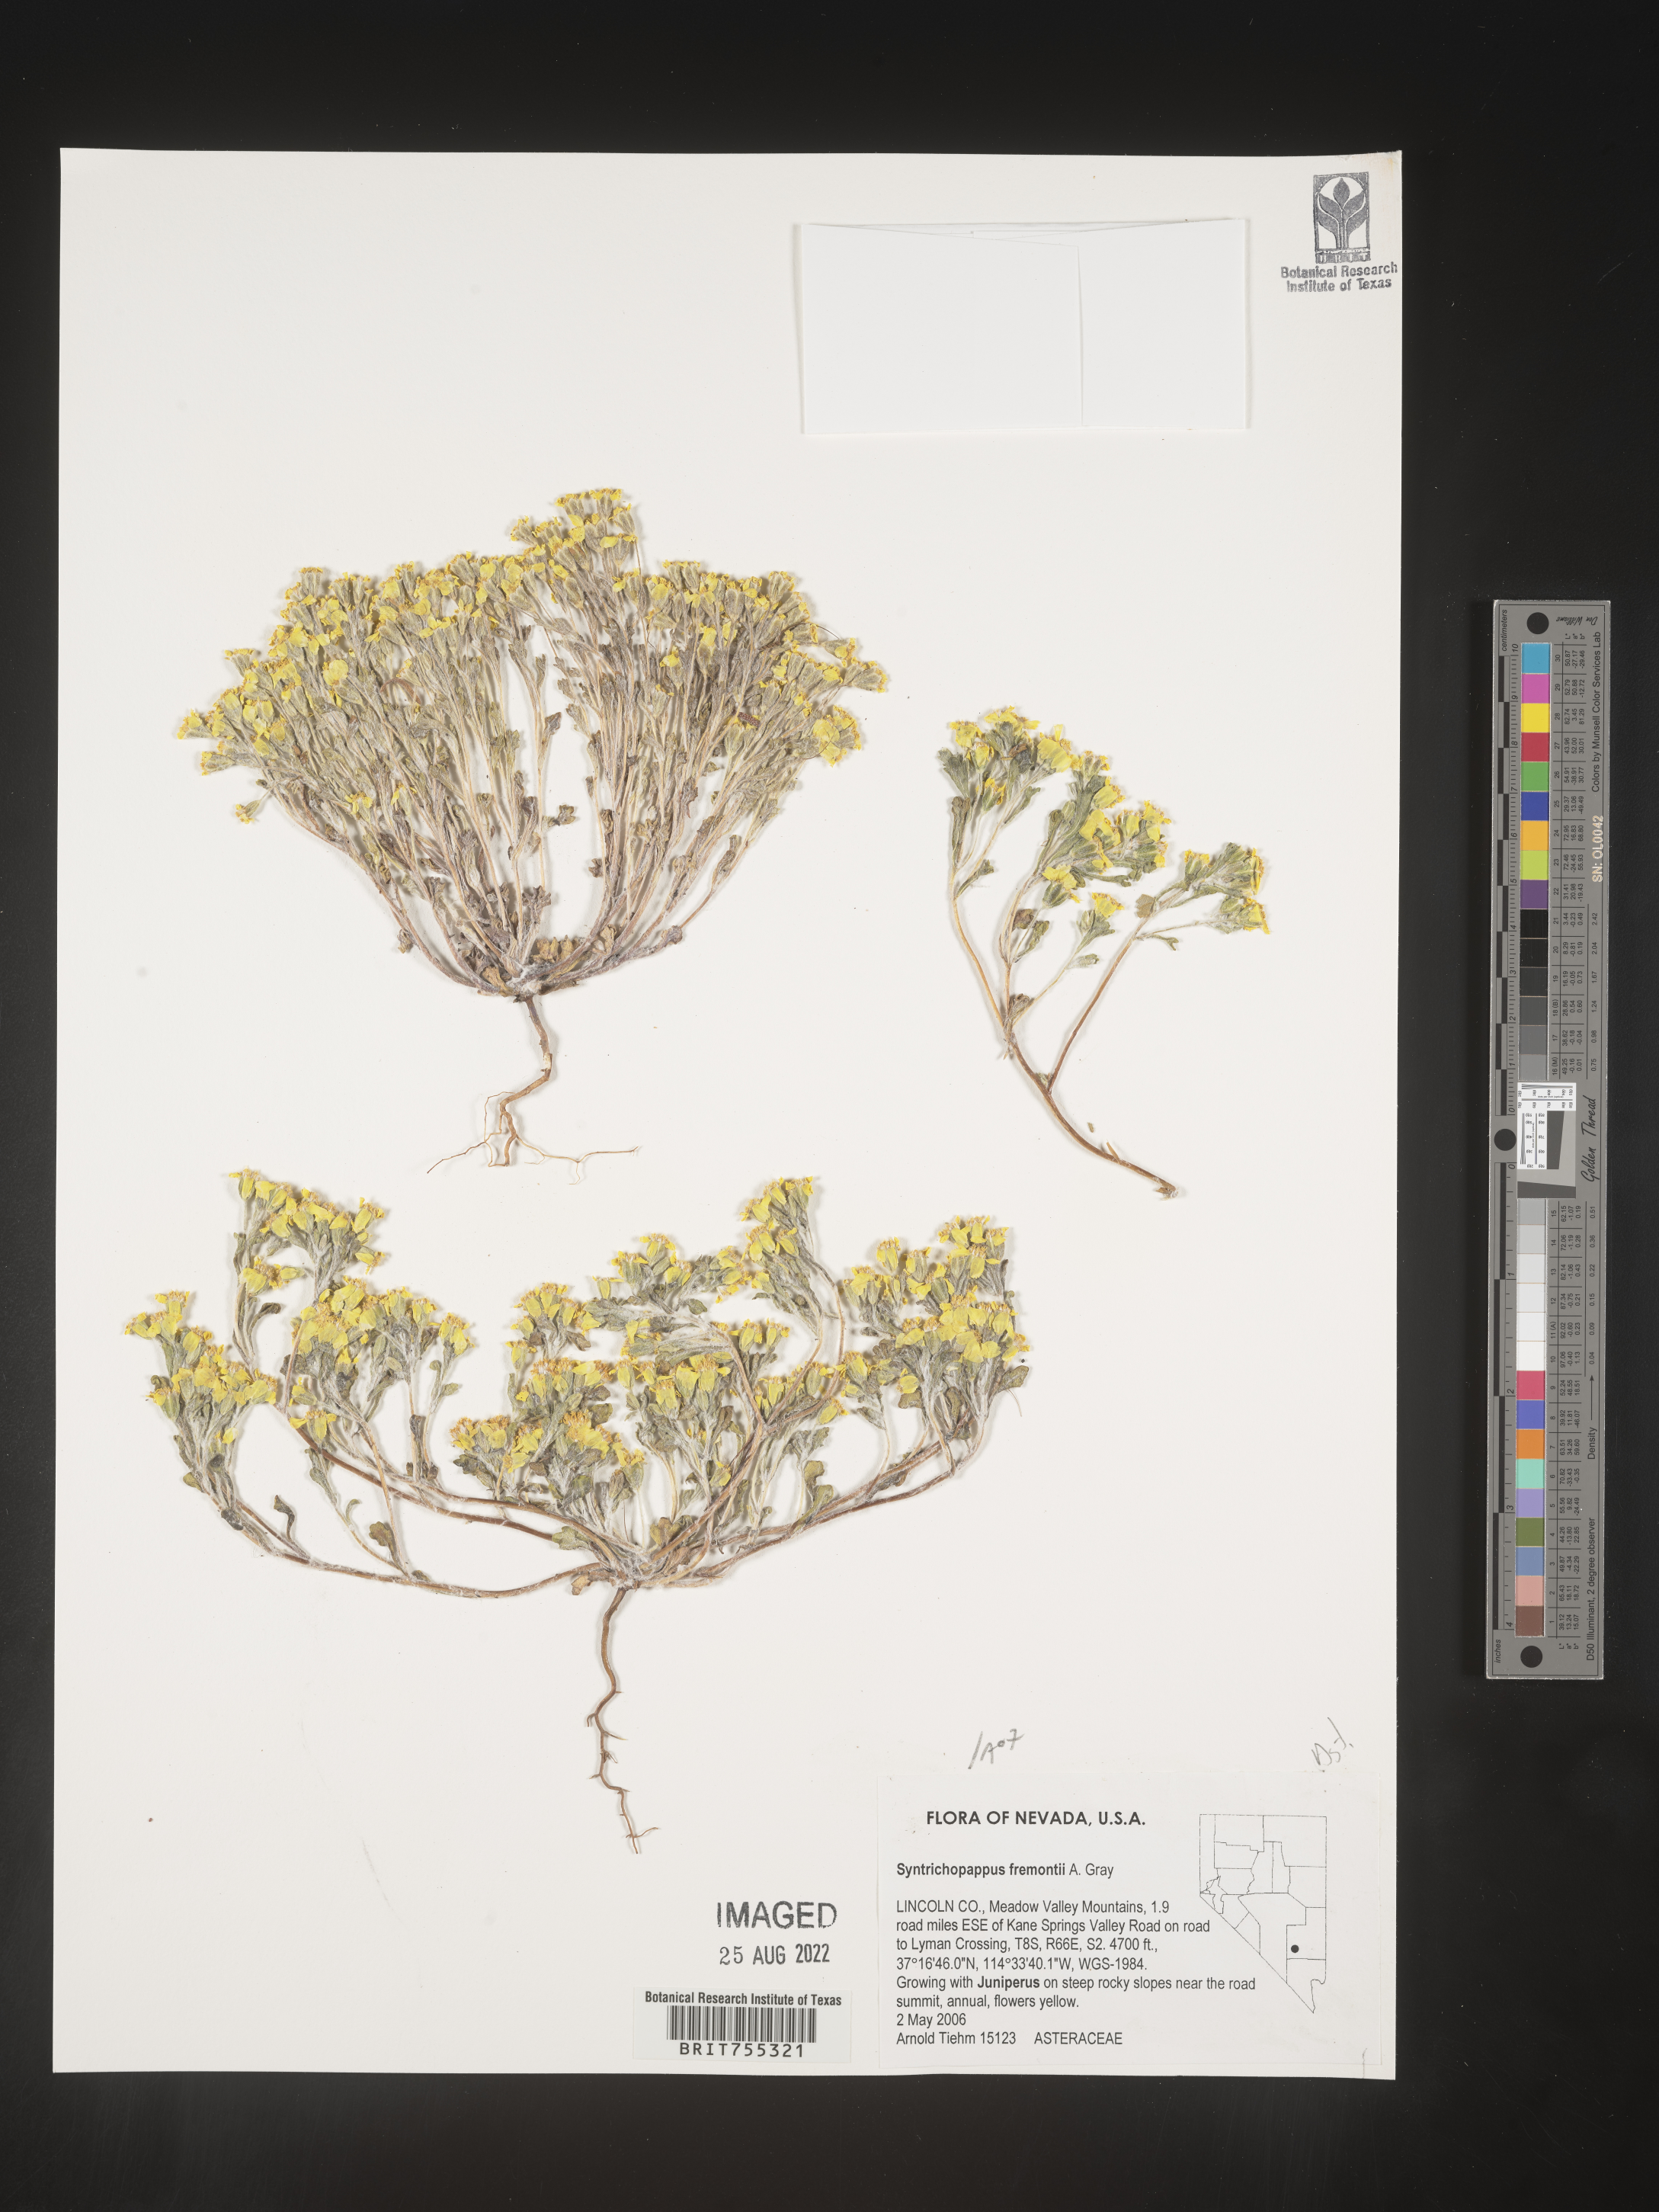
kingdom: Plantae
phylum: Tracheophyta
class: Magnoliopsida
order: Asterales
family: Asteraceae
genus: Syntrichopappus
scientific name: Syntrichopappus
